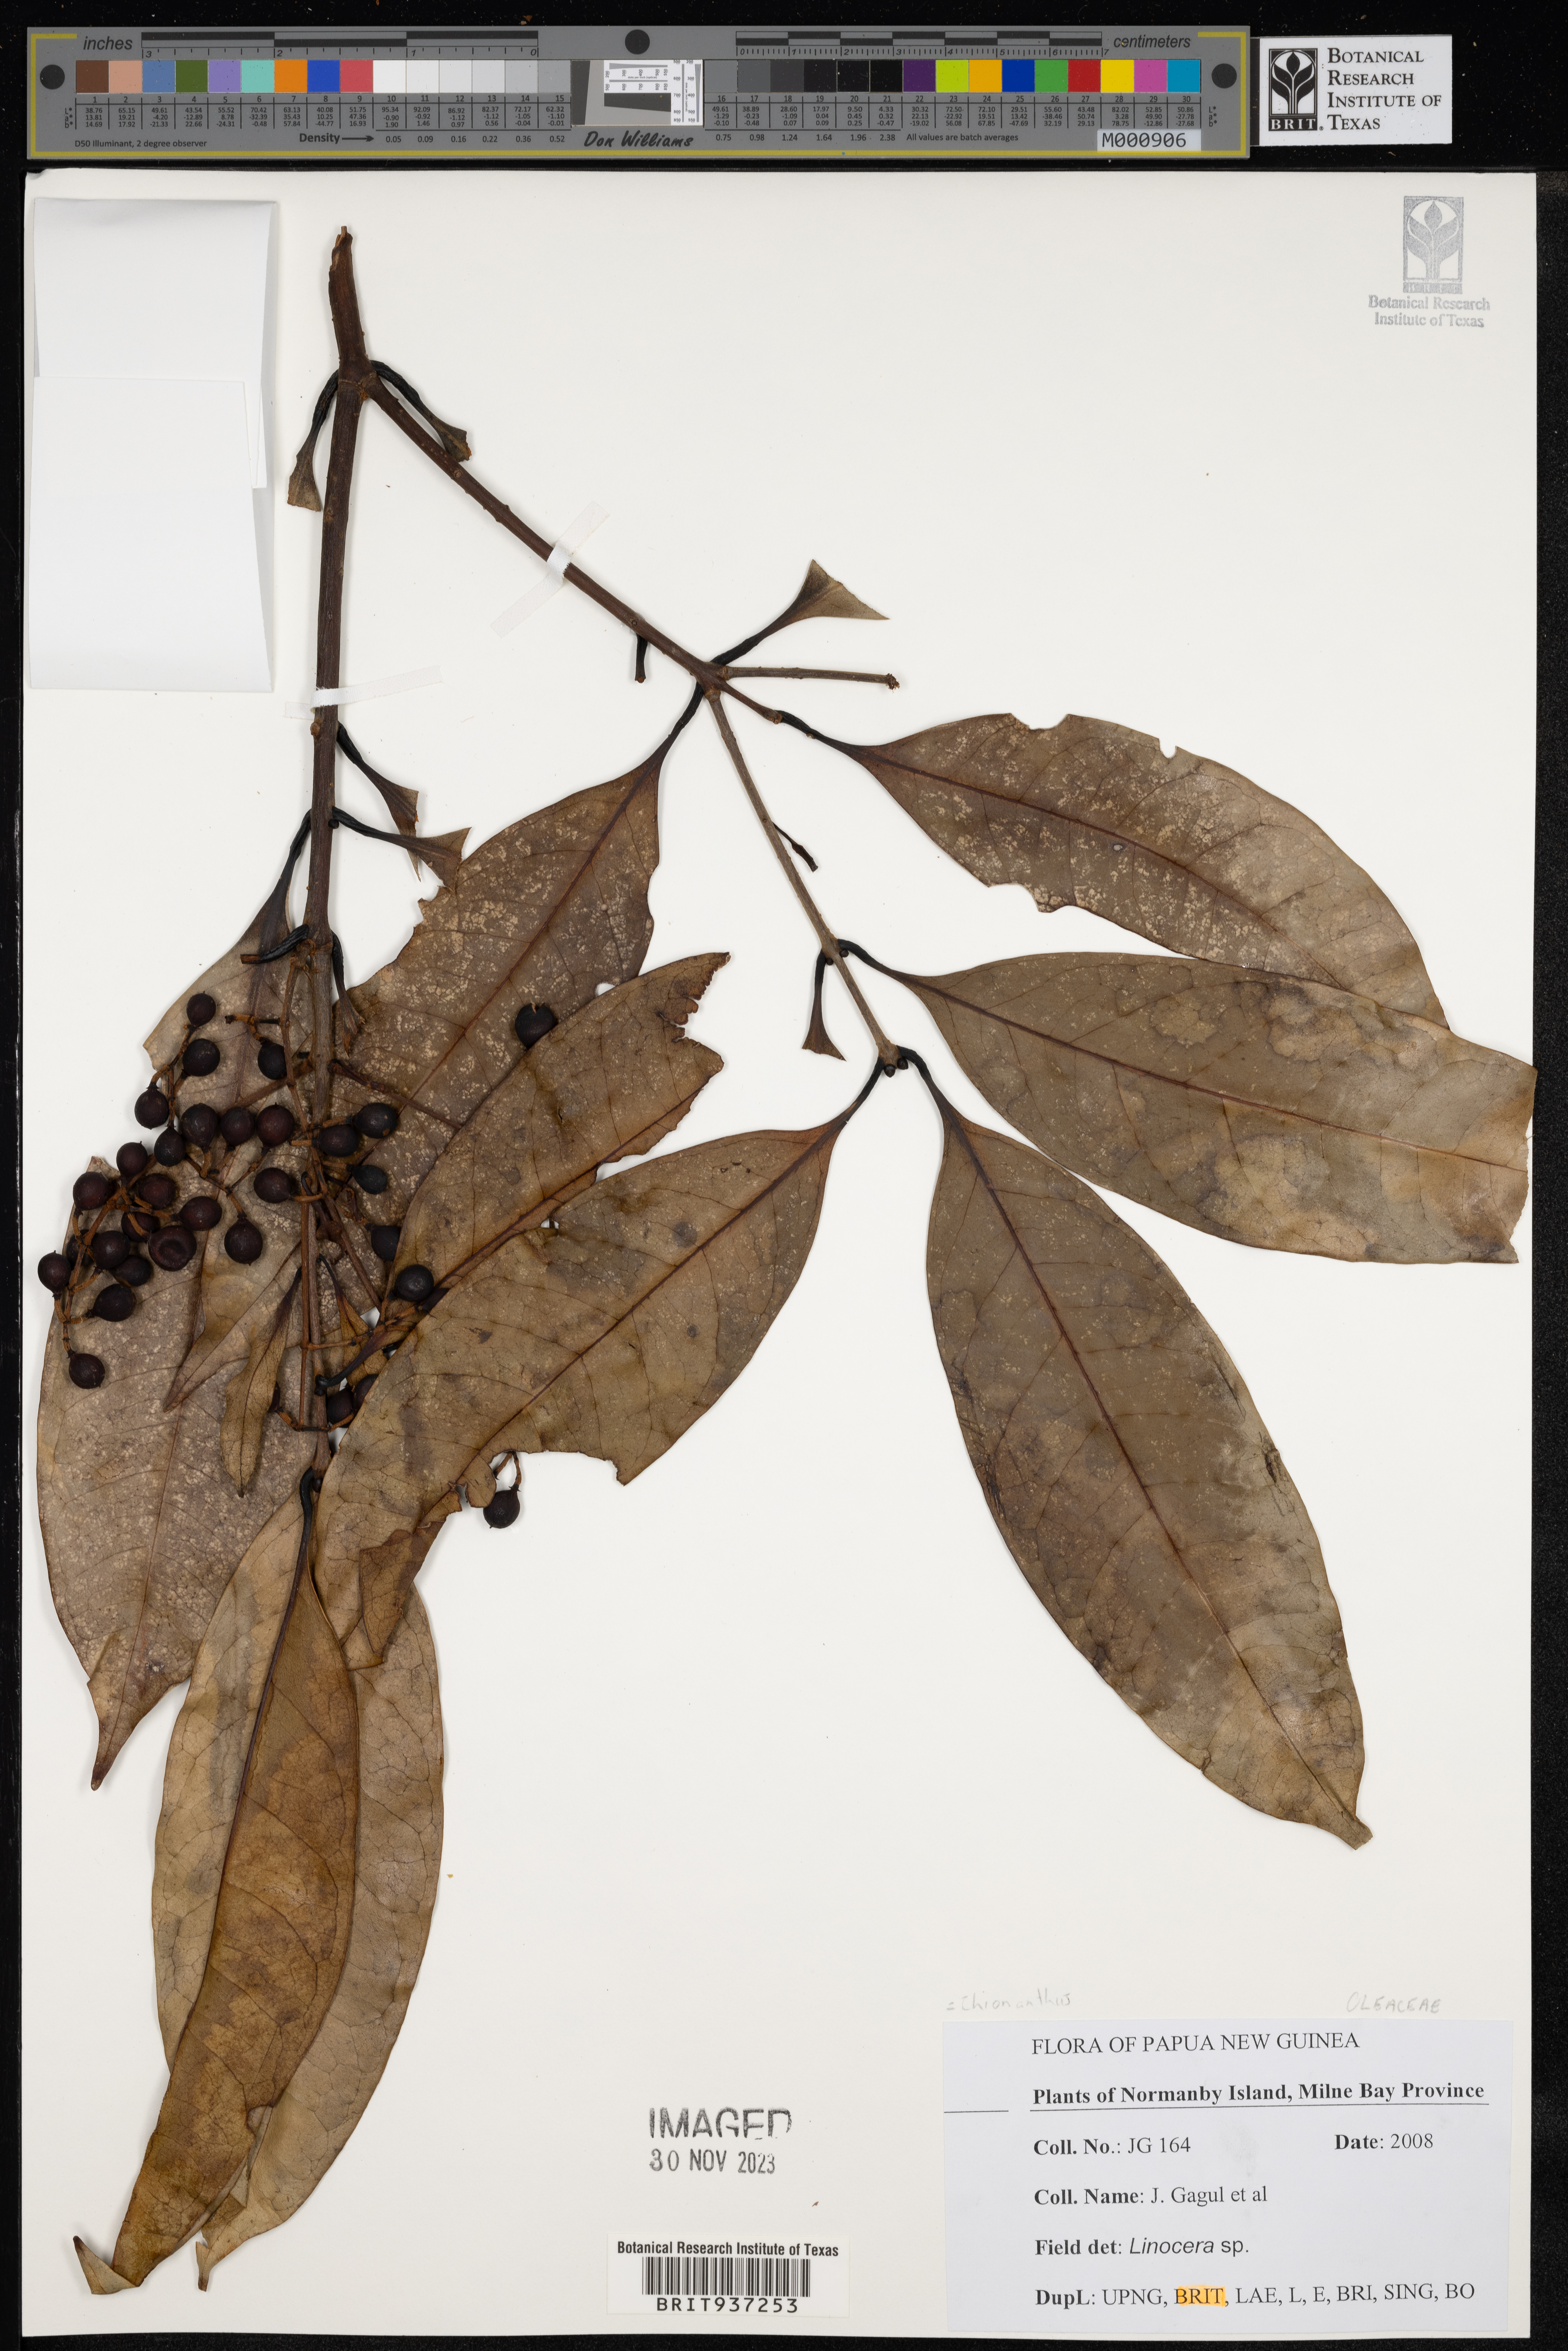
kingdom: Plantae
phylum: Tracheophyta
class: Magnoliopsida
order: Lamiales
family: Oleaceae
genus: Chionanthus
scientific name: Chionanthus
